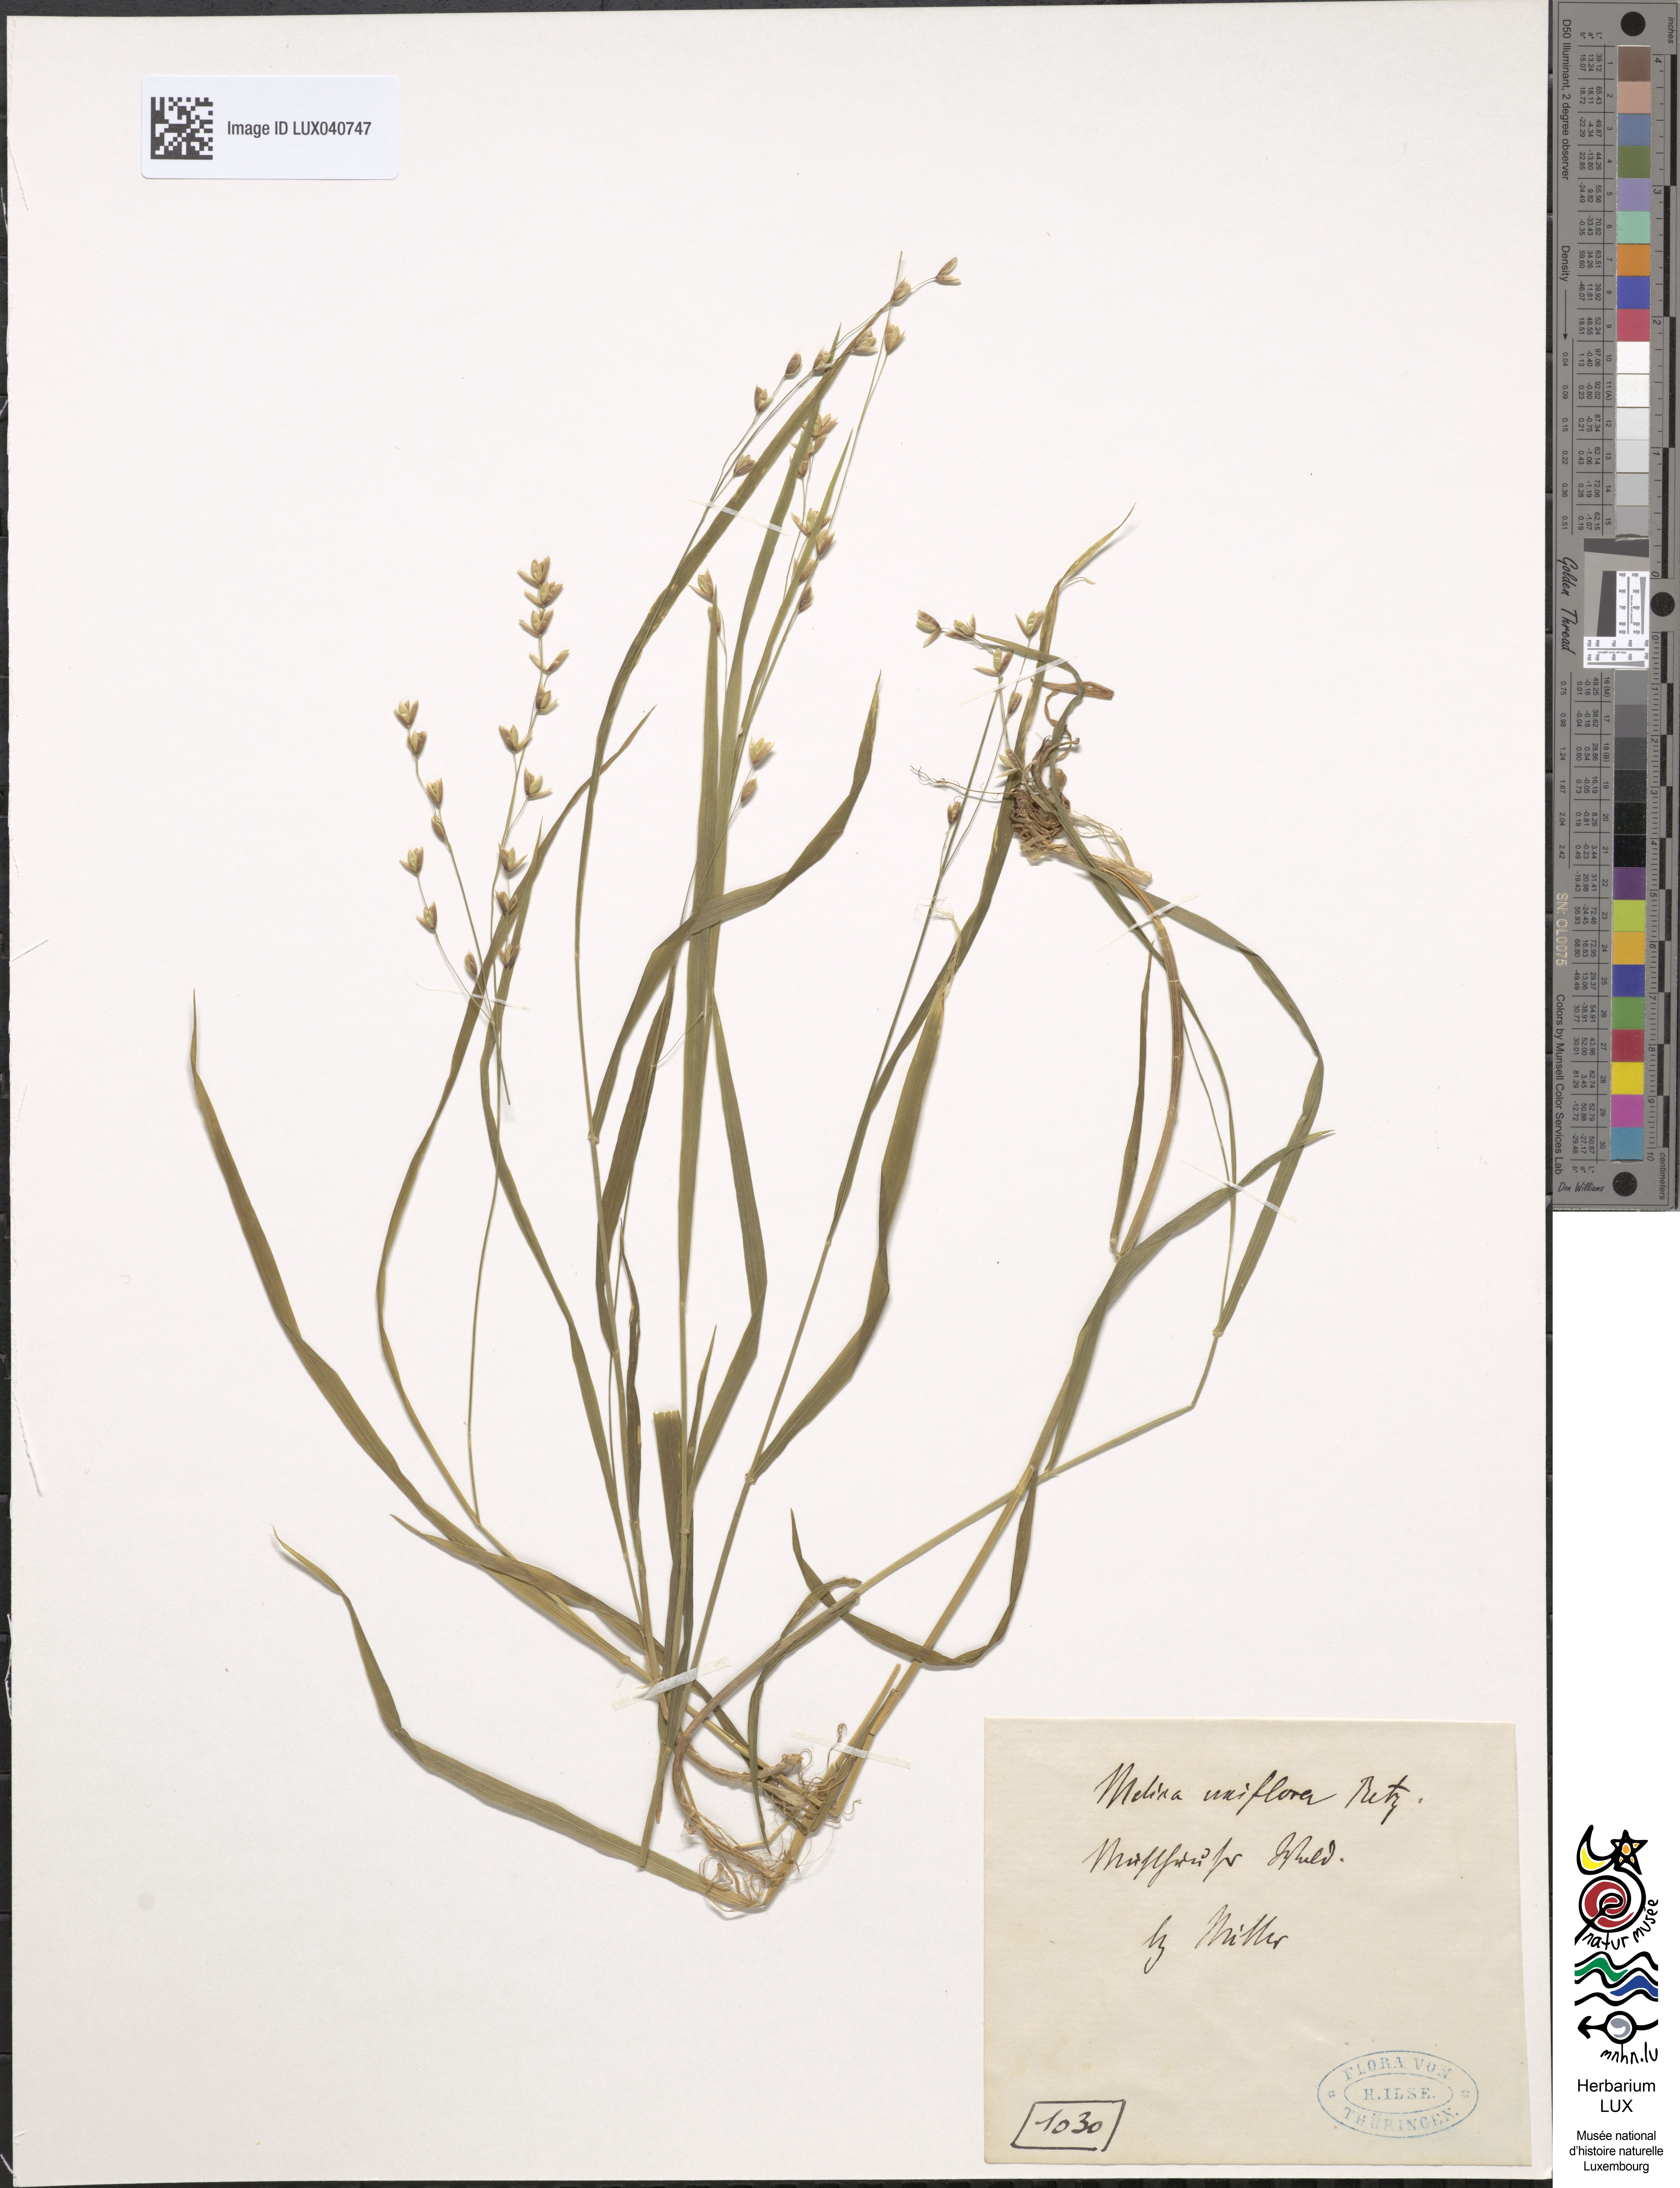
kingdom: Plantae
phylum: Tracheophyta
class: Liliopsida
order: Poales
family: Poaceae
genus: Melica
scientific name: Melica uniflora
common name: Wood melick
